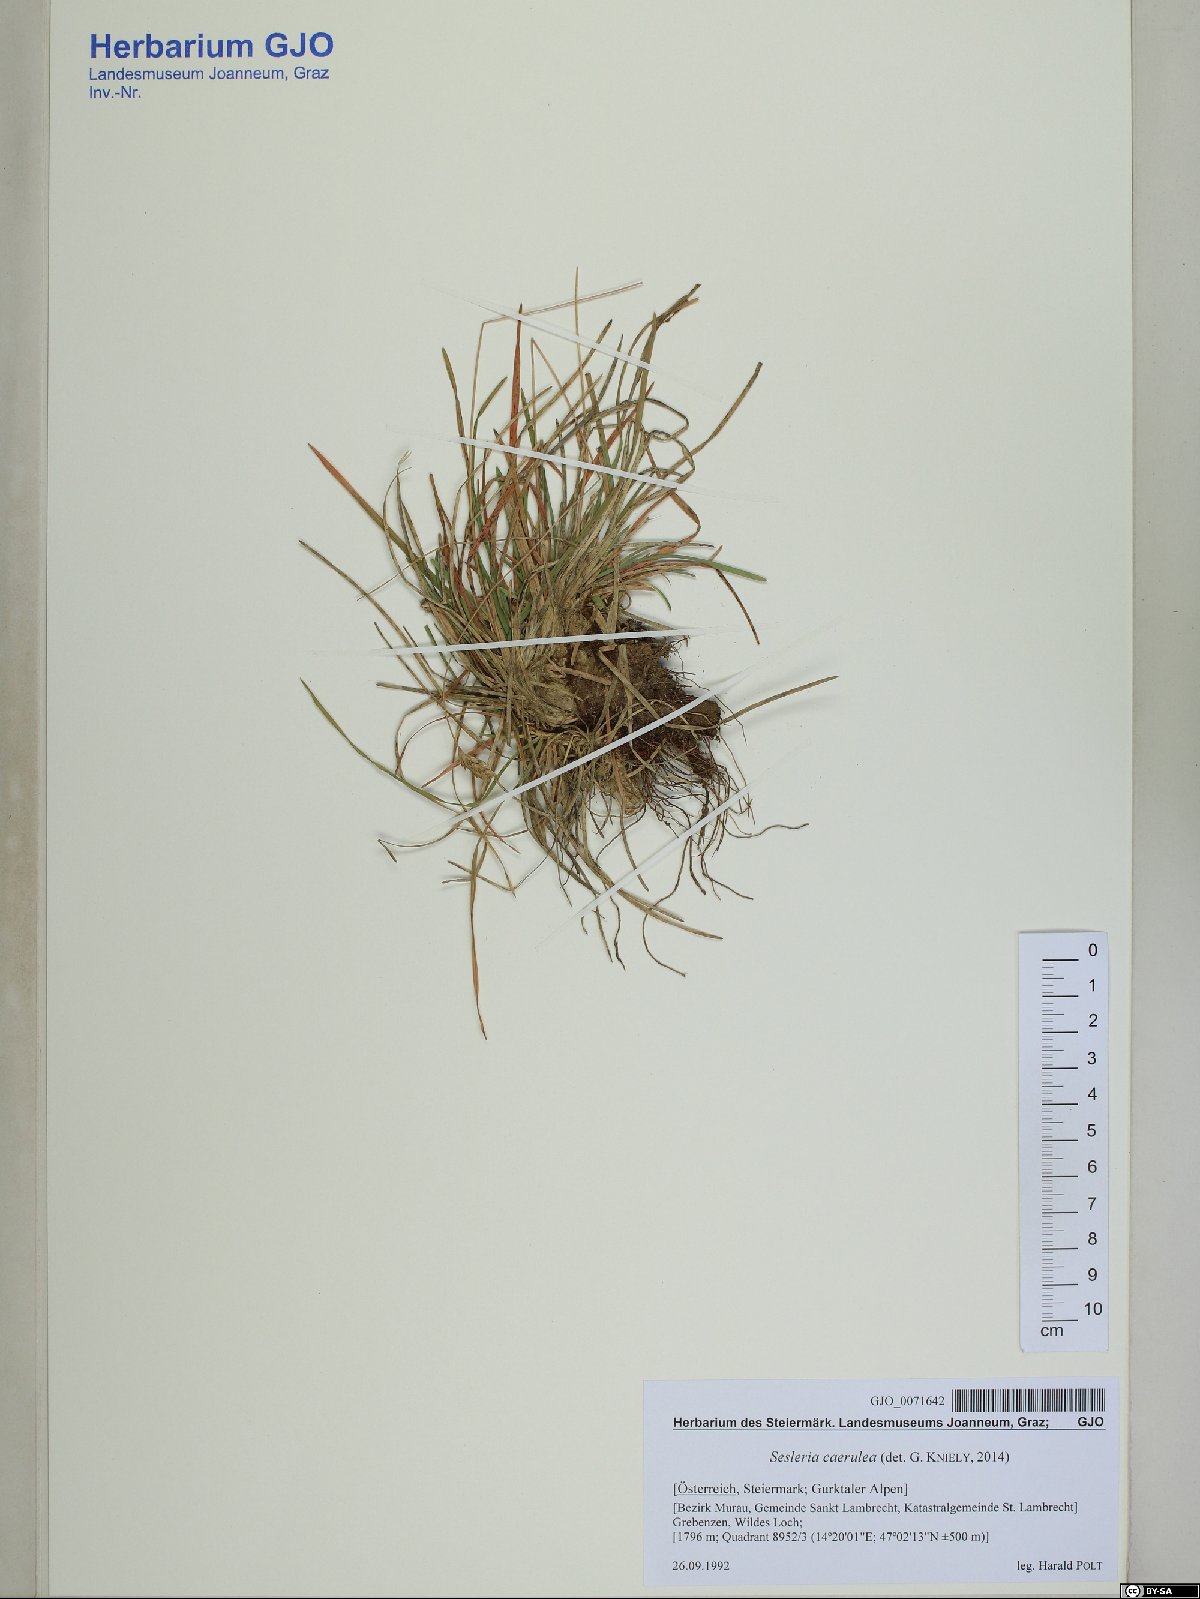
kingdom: Plantae
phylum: Tracheophyta
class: Liliopsida
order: Poales
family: Poaceae
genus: Sesleria
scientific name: Sesleria caerulea
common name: Blue moor-grass
